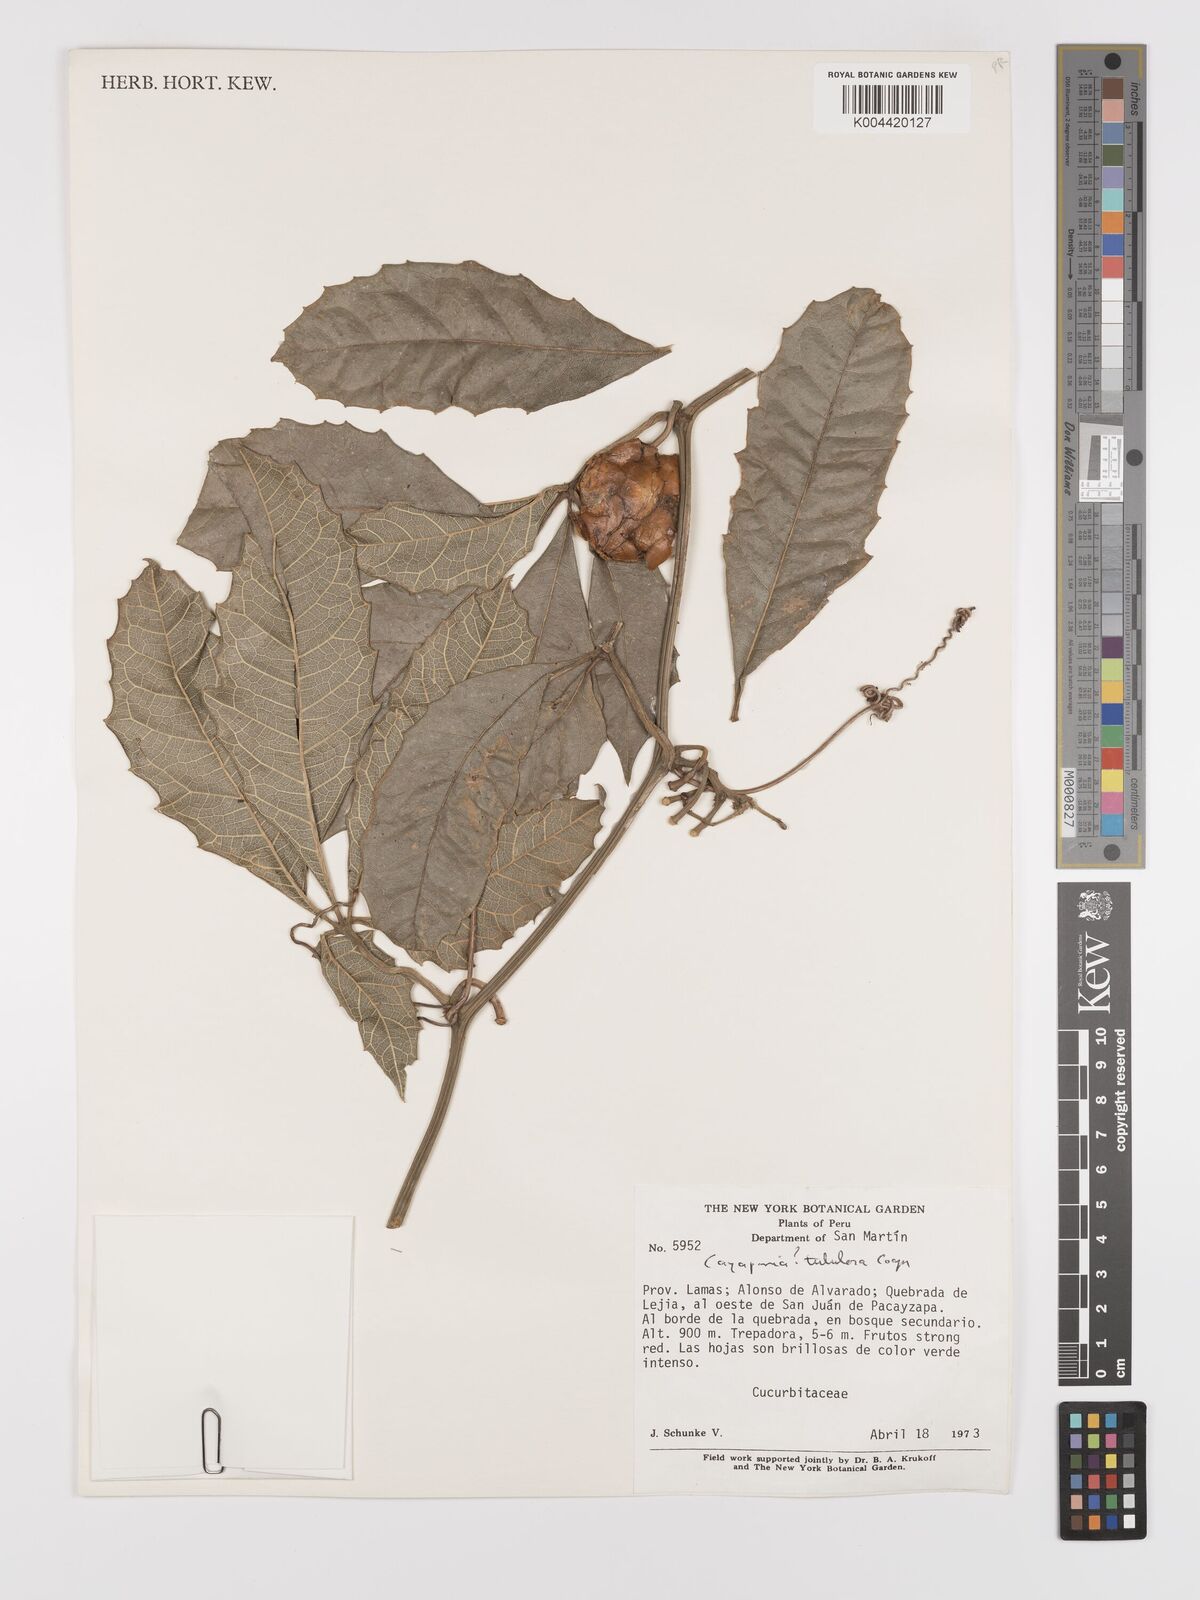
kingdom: Plantae
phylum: Tracheophyta
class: Magnoliopsida
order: Cucurbitales
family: Cucurbitaceae
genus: Cayaponia
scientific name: Cayaponia tubulosa
